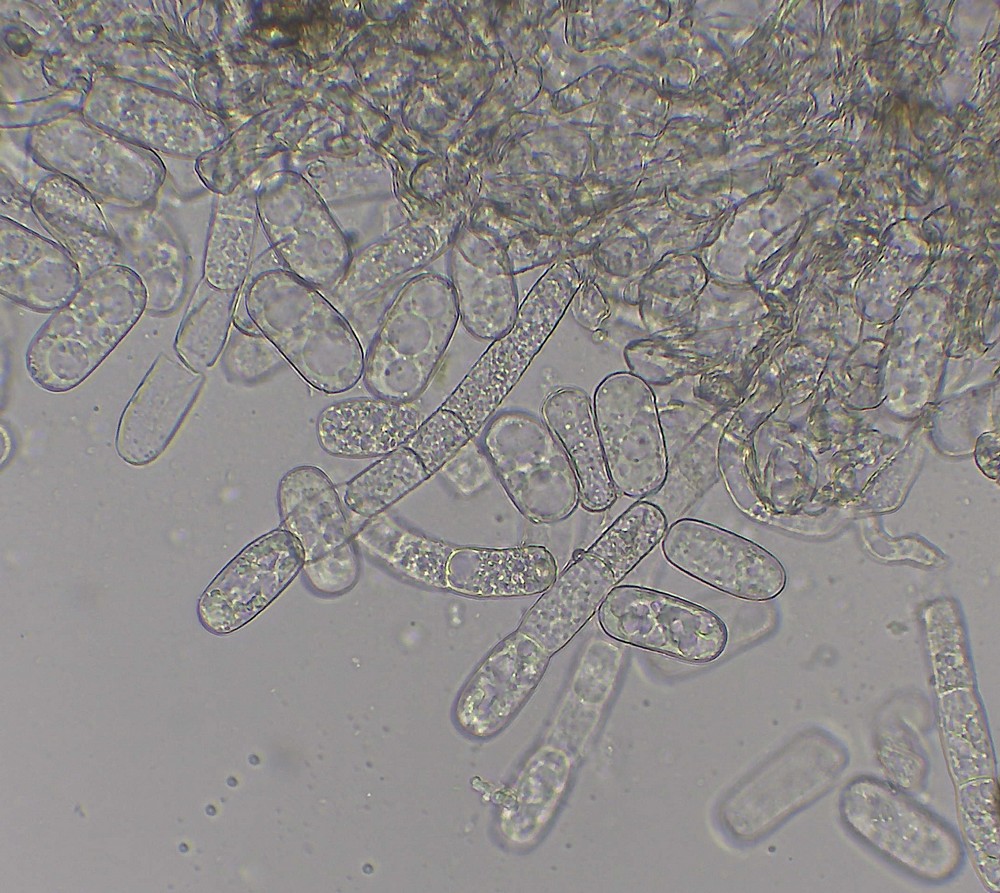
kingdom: Fungi
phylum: Ascomycota
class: Leotiomycetes
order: Helotiales
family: Erysiphaceae
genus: Erysiphe
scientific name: Erysiphe mougeotii
